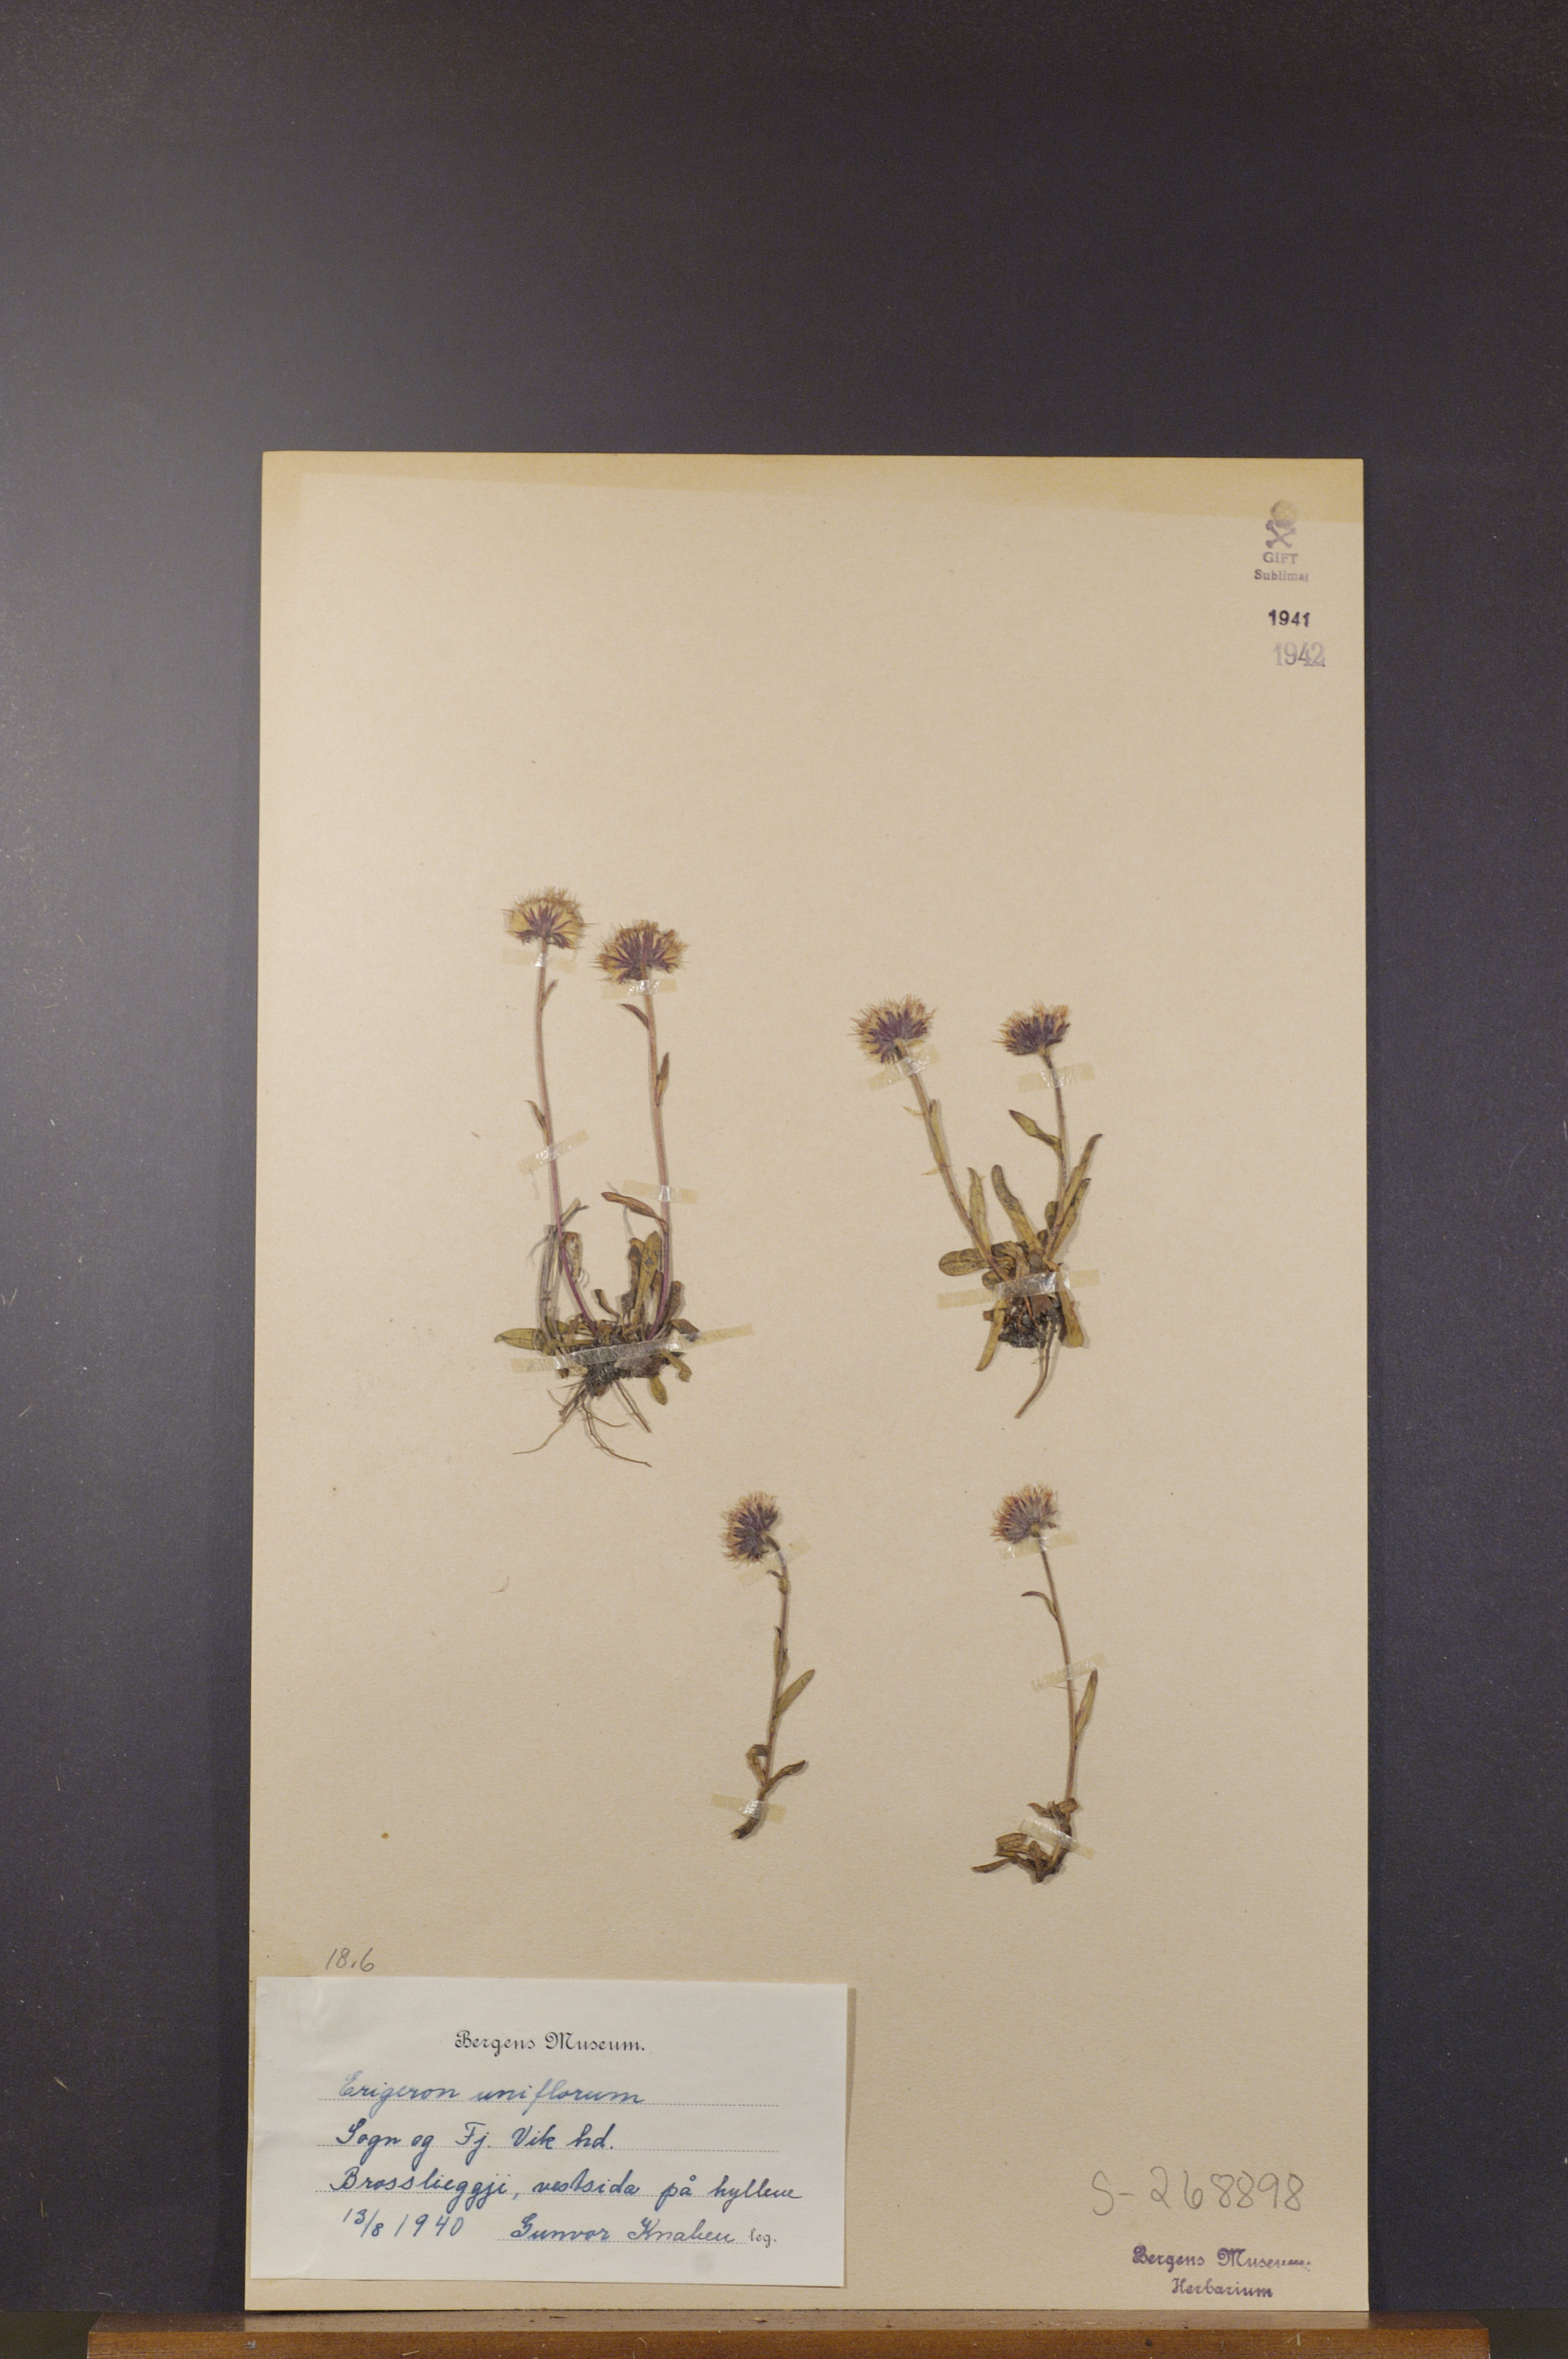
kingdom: Plantae
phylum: Tracheophyta
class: Magnoliopsida
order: Asterales
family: Asteraceae
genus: Erigeron
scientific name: Erigeron uniflorus
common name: Northern daisy
